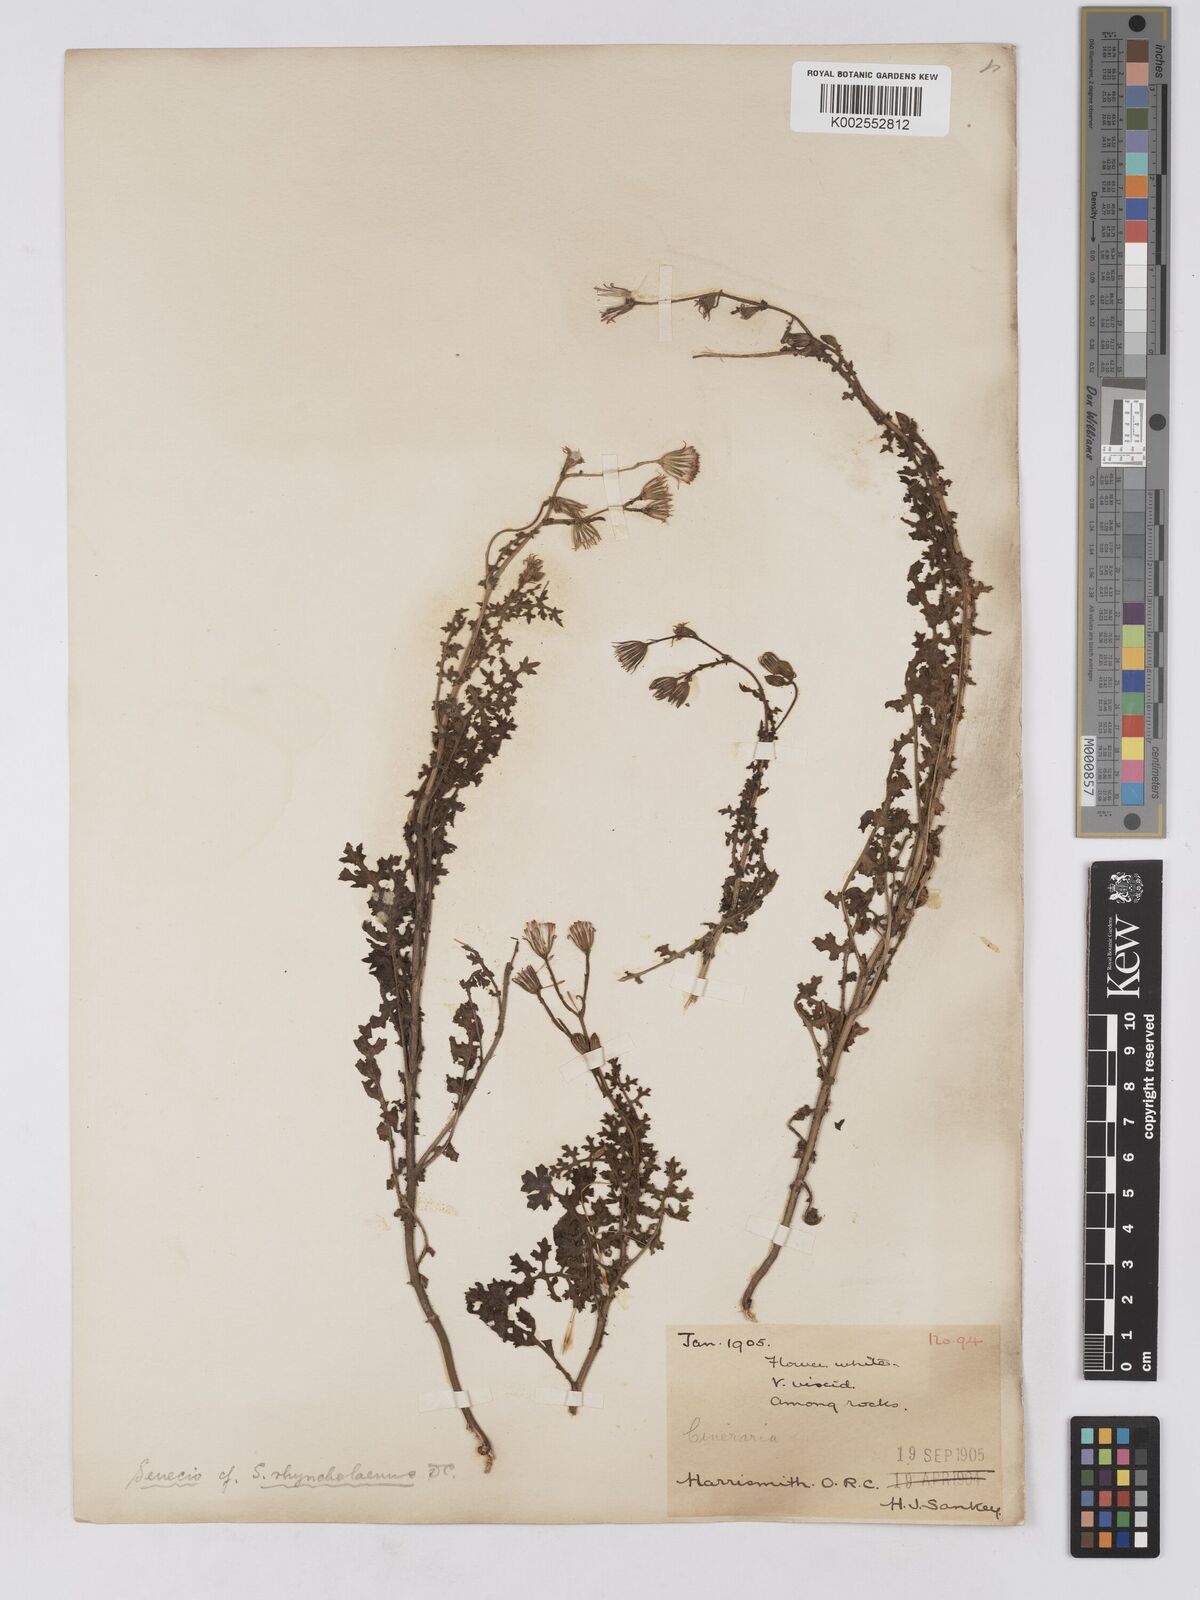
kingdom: Plantae
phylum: Tracheophyta
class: Magnoliopsida
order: Asterales
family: Asteraceae
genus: Senecio
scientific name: Senecio consanguineus
